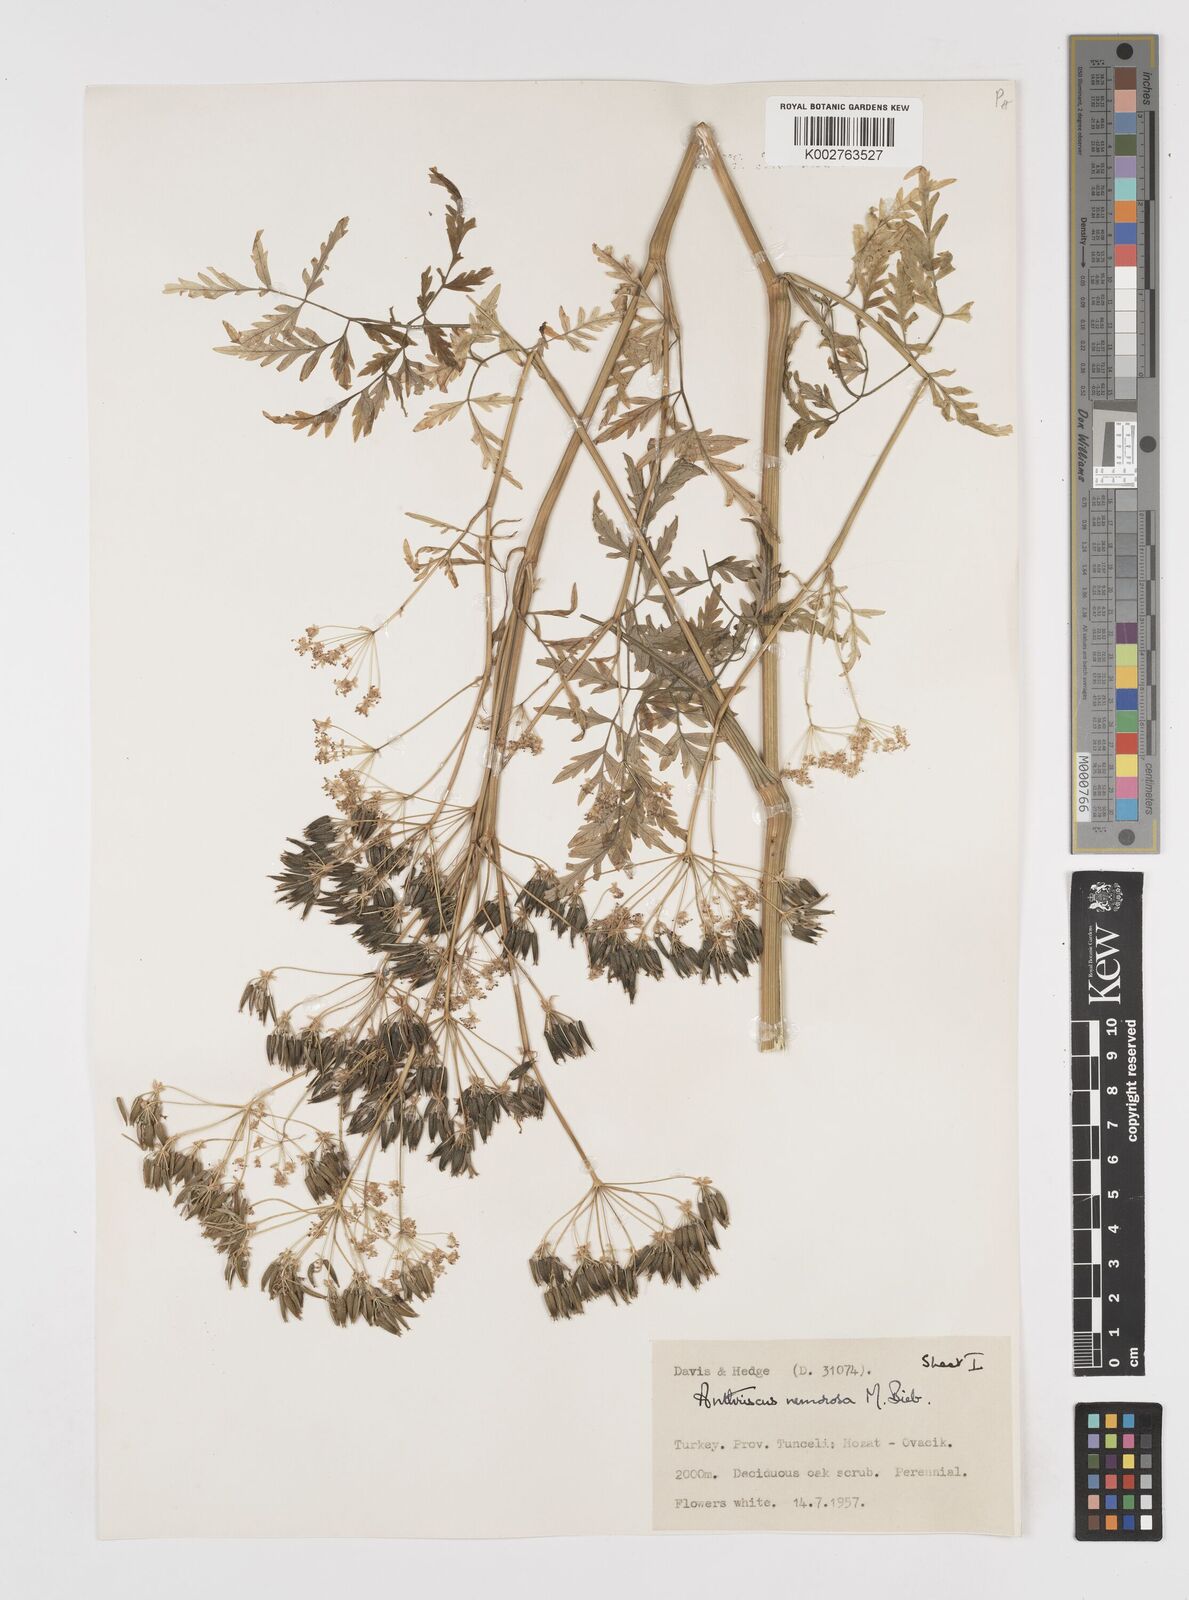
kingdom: Plantae
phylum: Tracheophyta
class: Magnoliopsida
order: Apiales
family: Apiaceae
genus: Anthriscus
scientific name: Anthriscus sylvestris
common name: Cow parsley
